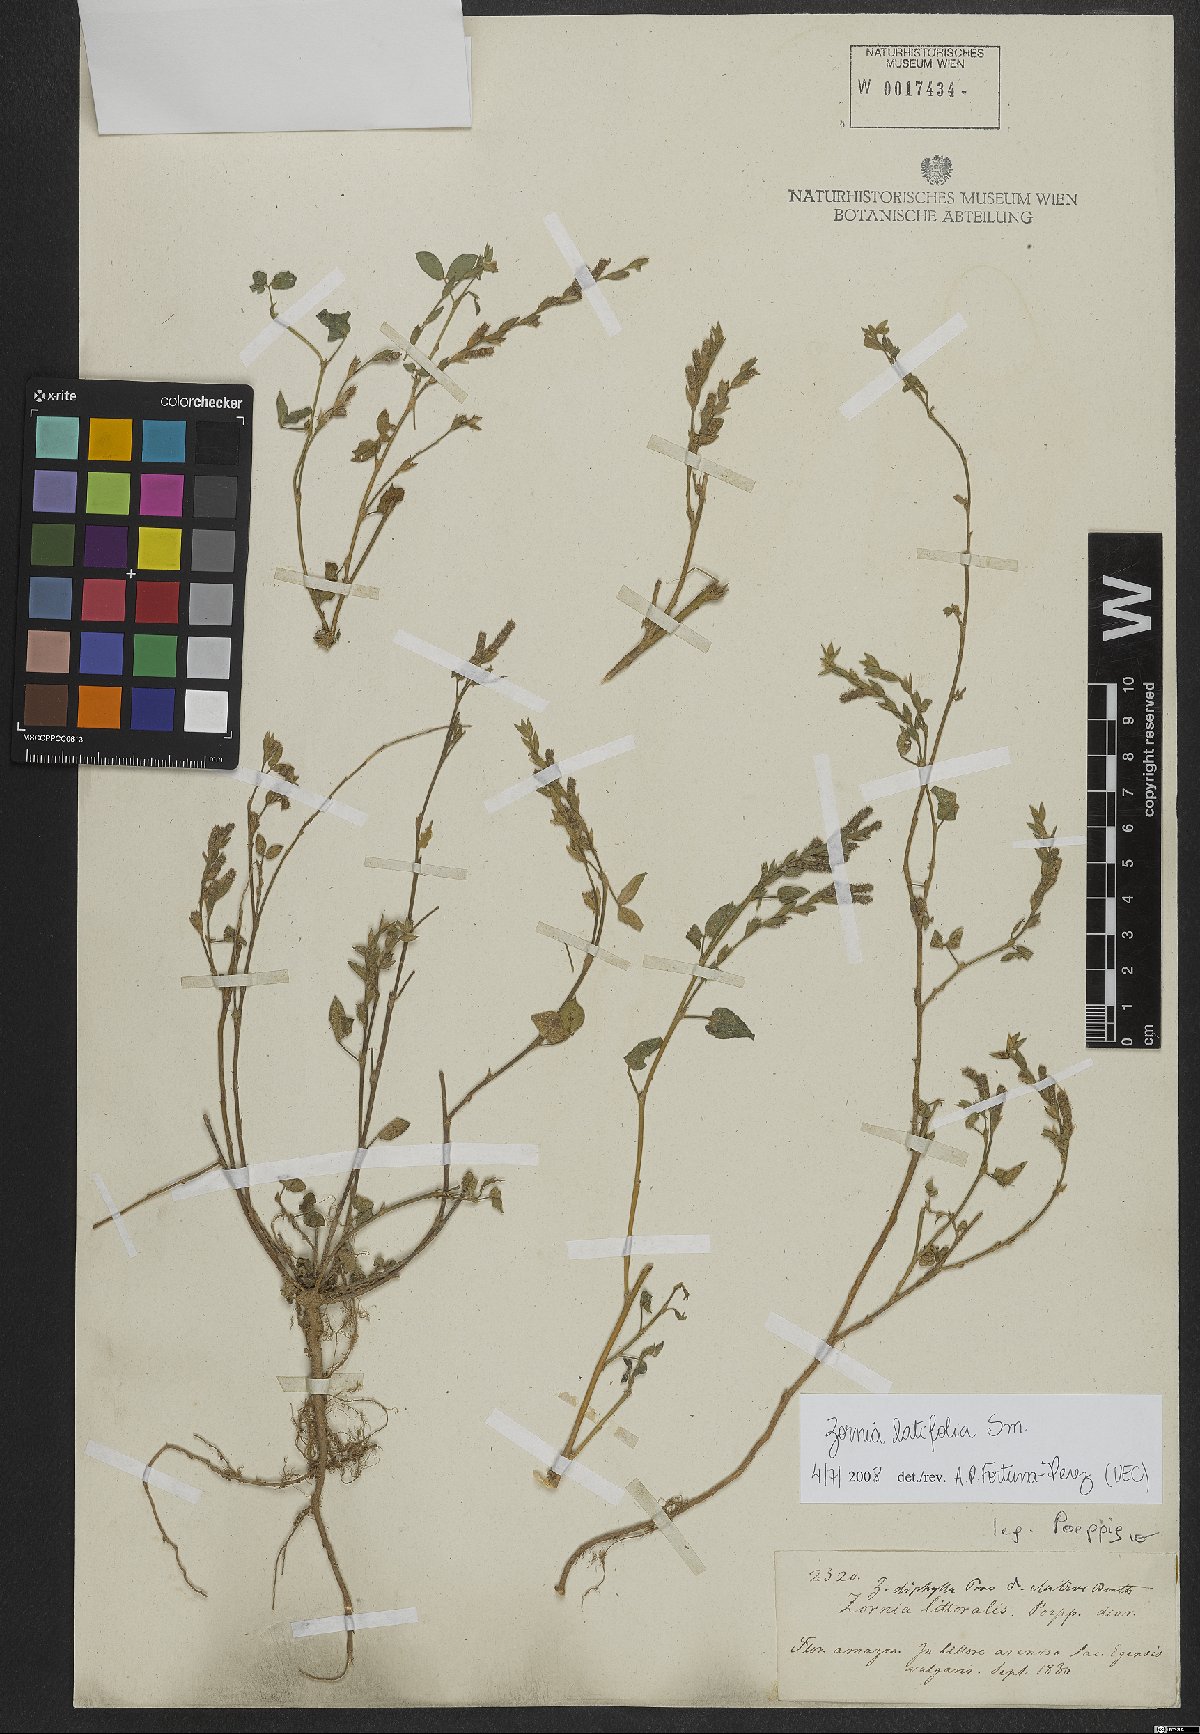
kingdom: Plantae
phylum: Tracheophyta
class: Magnoliopsida
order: Fabales
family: Fabaceae
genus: Zornia
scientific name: Zornia sericea
